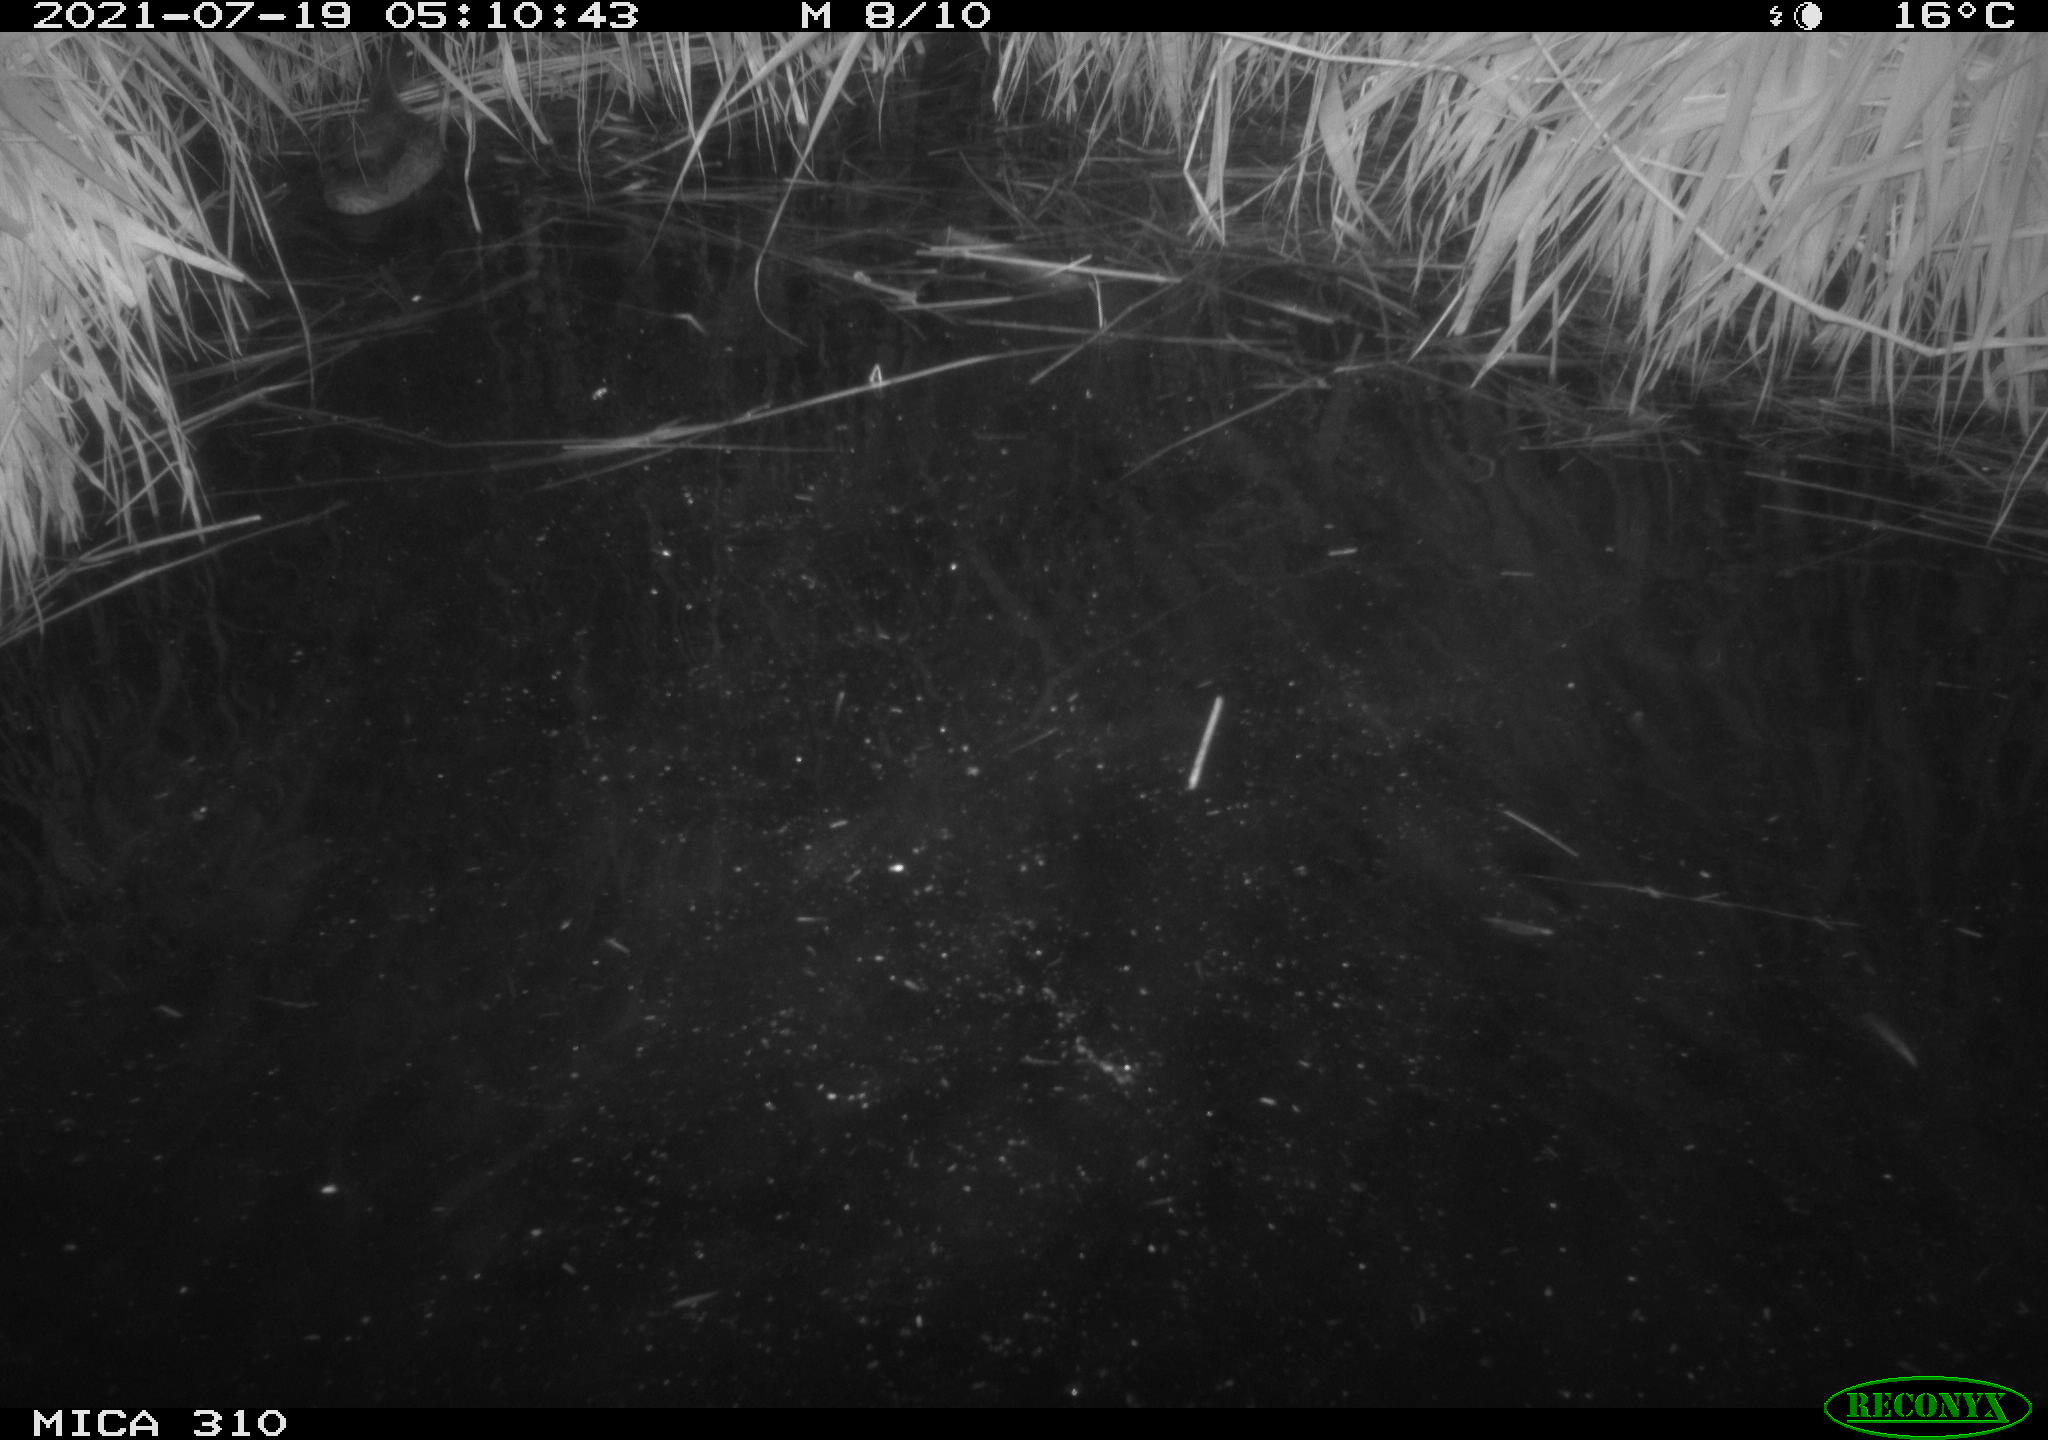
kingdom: Animalia
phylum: Chordata
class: Aves
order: Anseriformes
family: Anatidae
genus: Anas
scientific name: Anas platyrhynchos
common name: Mallard
